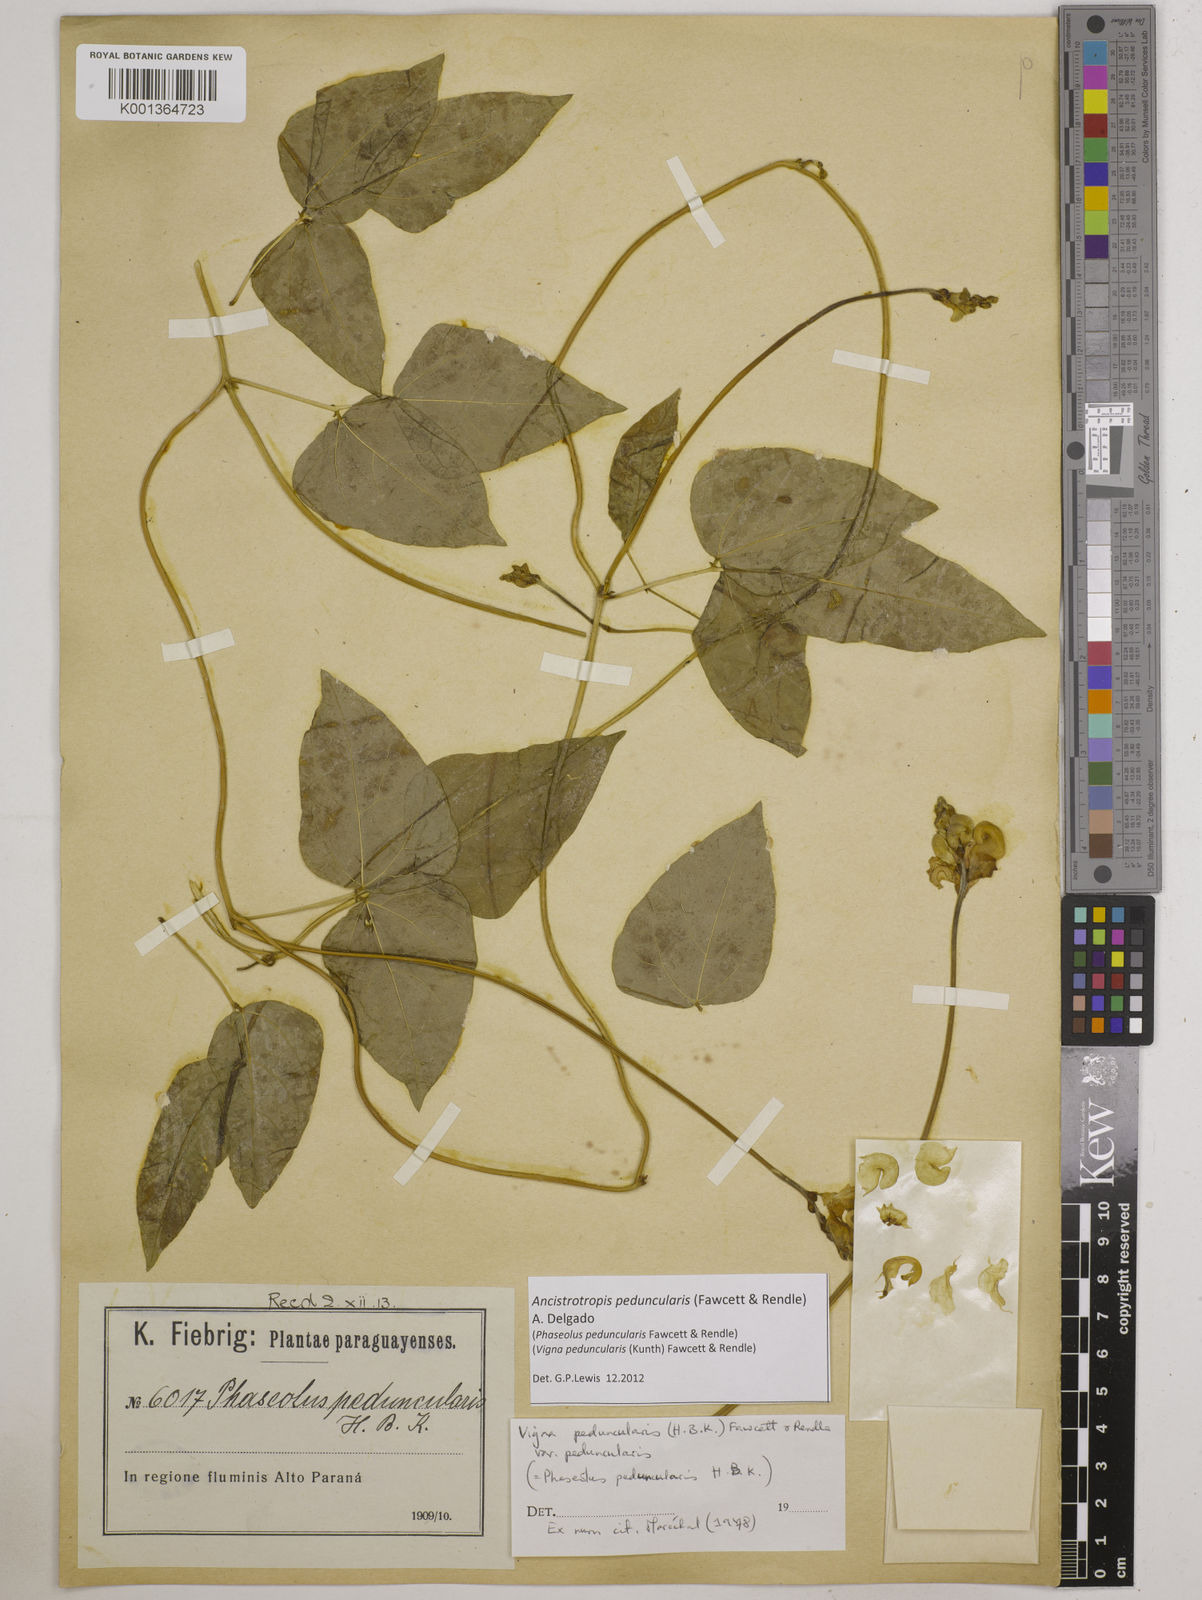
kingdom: Plantae
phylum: Tracheophyta
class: Magnoliopsida
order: Fabales
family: Fabaceae
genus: Ancistrotropis
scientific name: Ancistrotropis peduncularis
